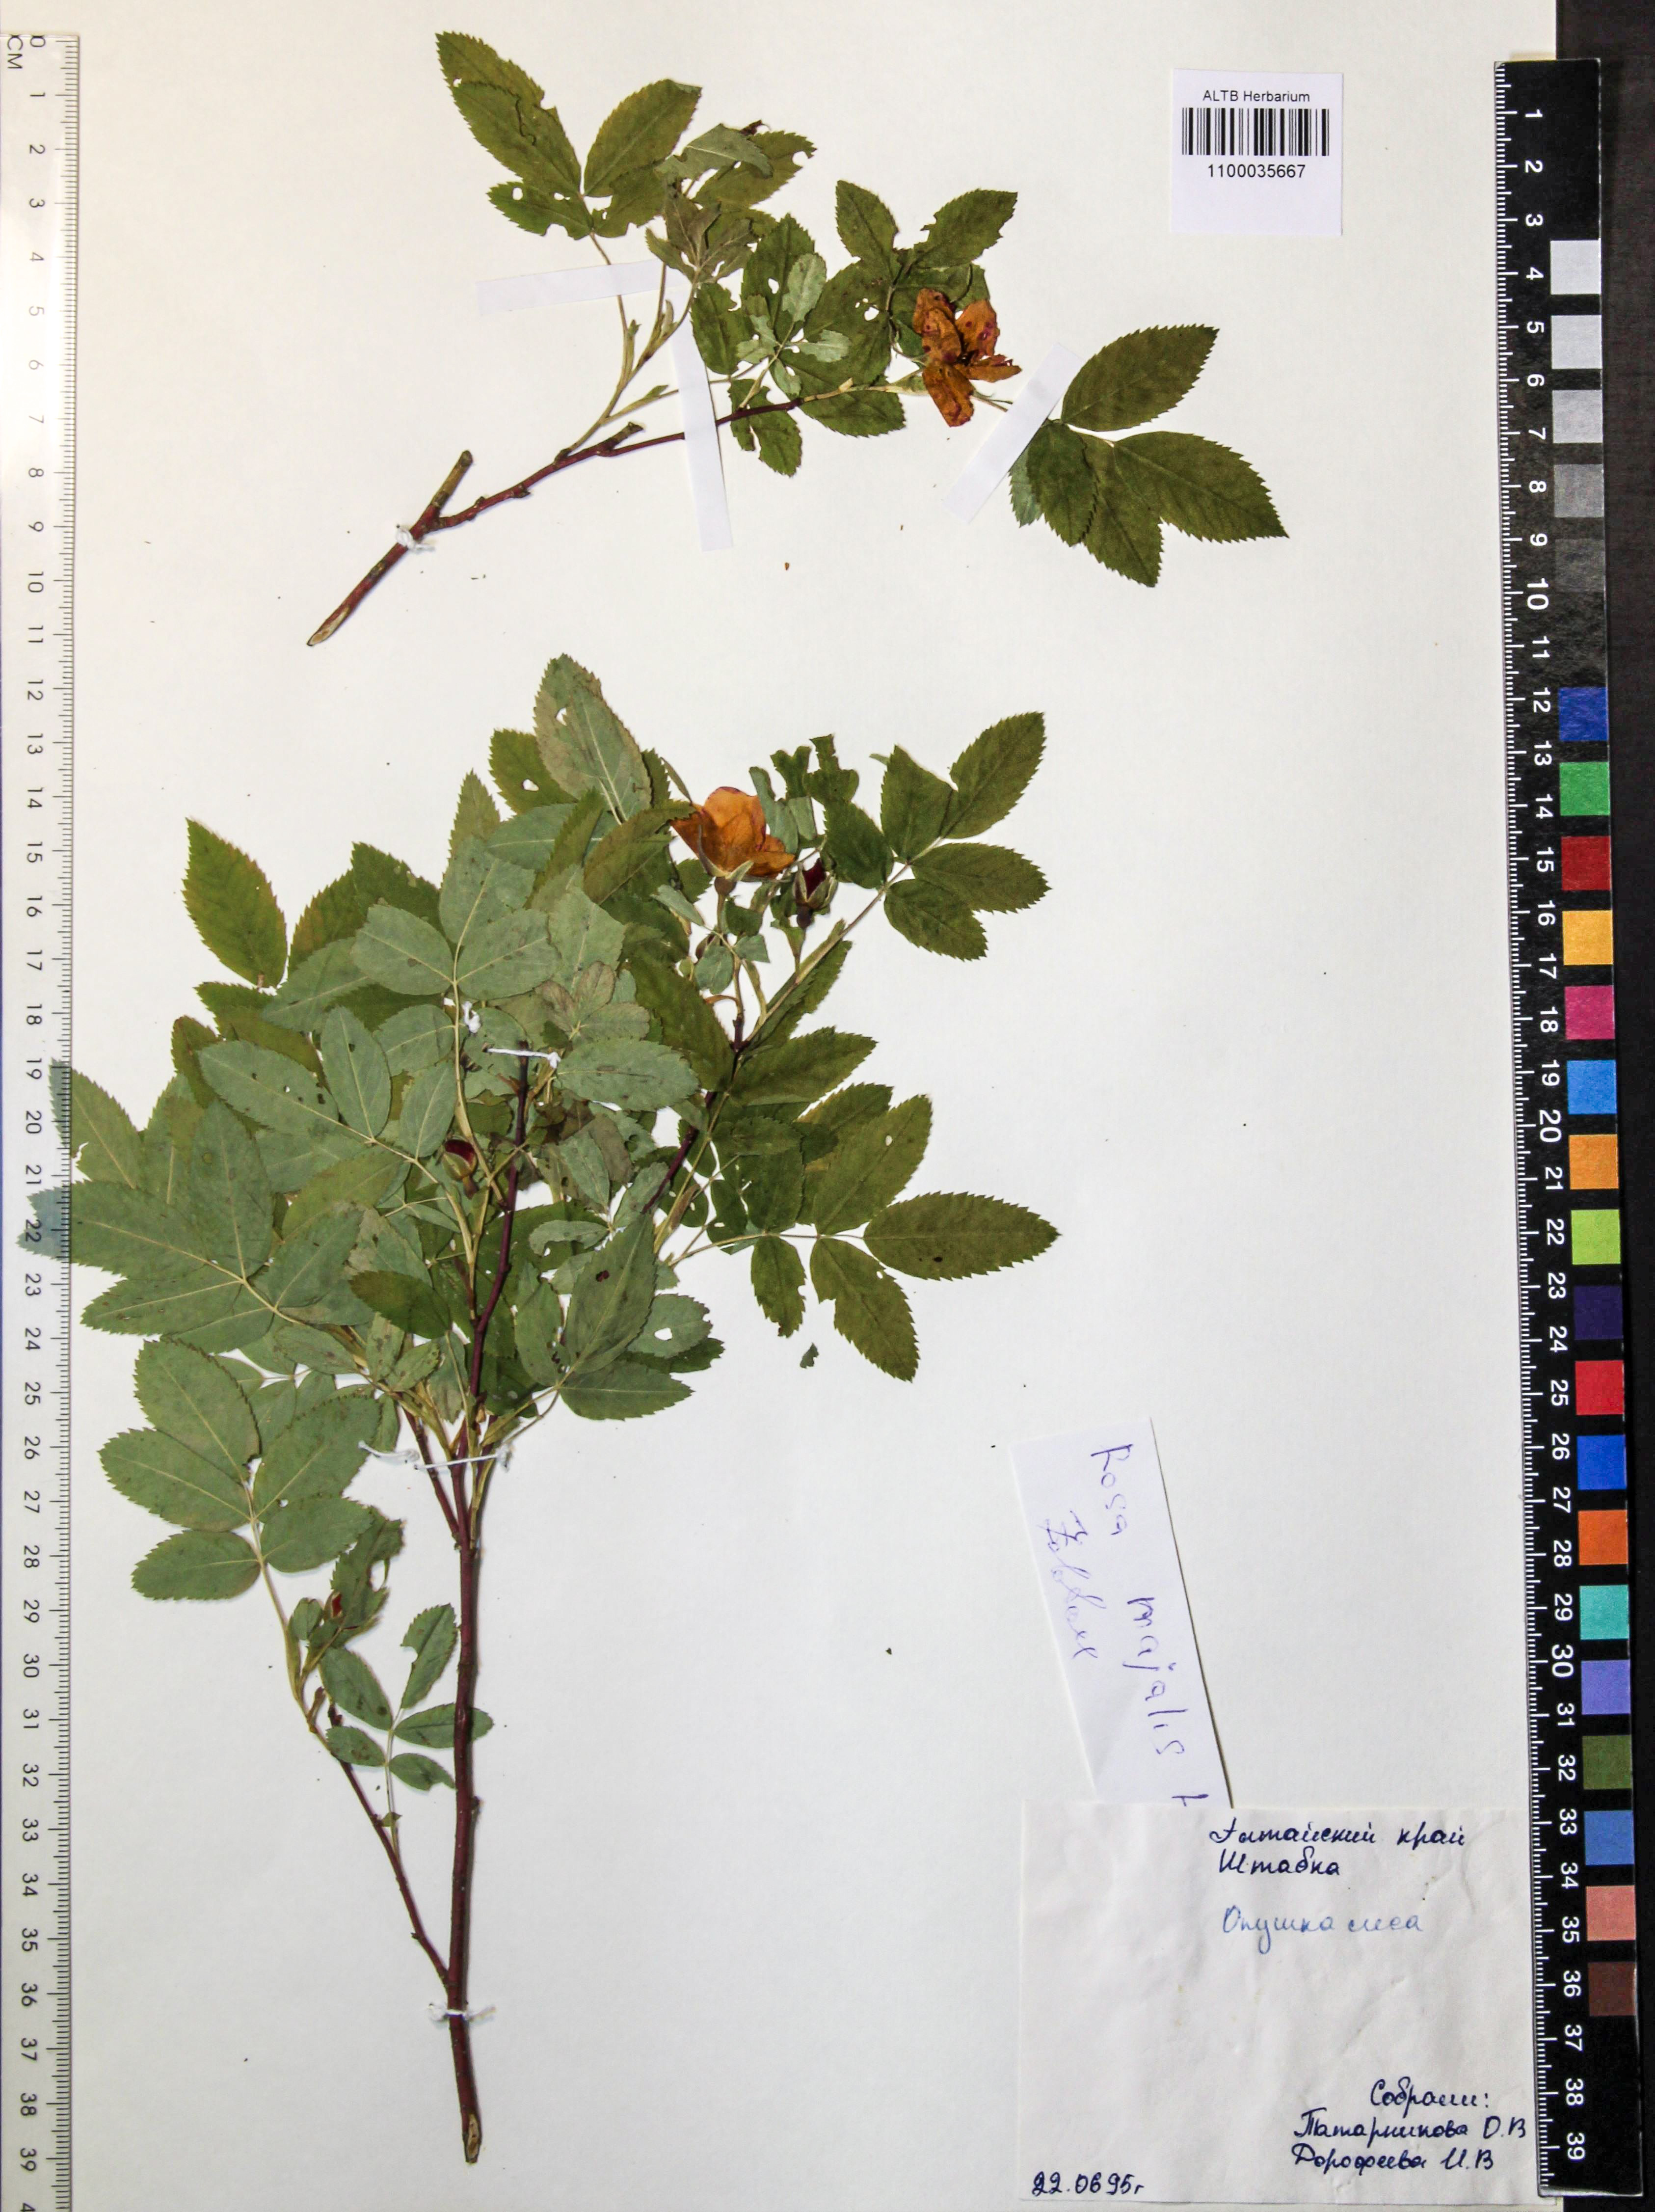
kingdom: Plantae
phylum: Tracheophyta
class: Magnoliopsida
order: Rosales
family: Rosaceae
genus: Rosa
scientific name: Rosa majalis
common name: Cinnamon rose
